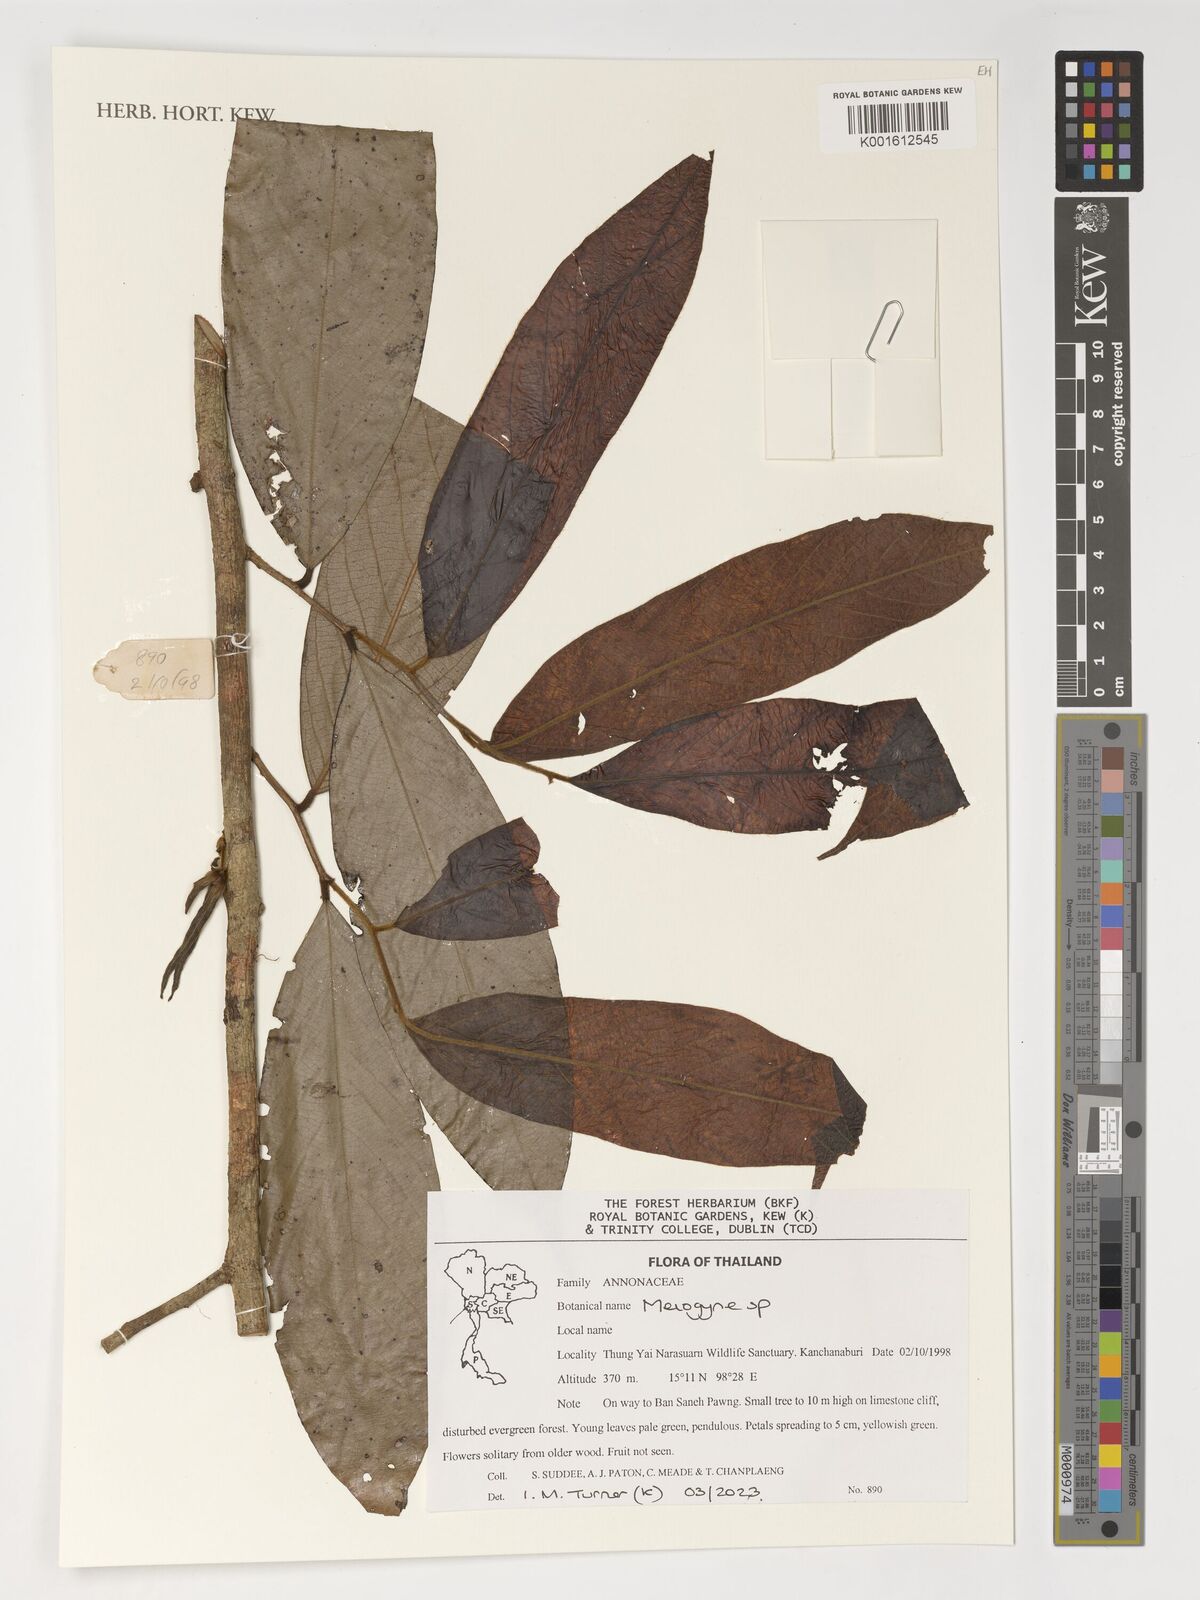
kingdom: Plantae
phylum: Tracheophyta
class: Magnoliopsida
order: Magnoliales
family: Annonaceae
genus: Meiogyne
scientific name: Meiogyne
